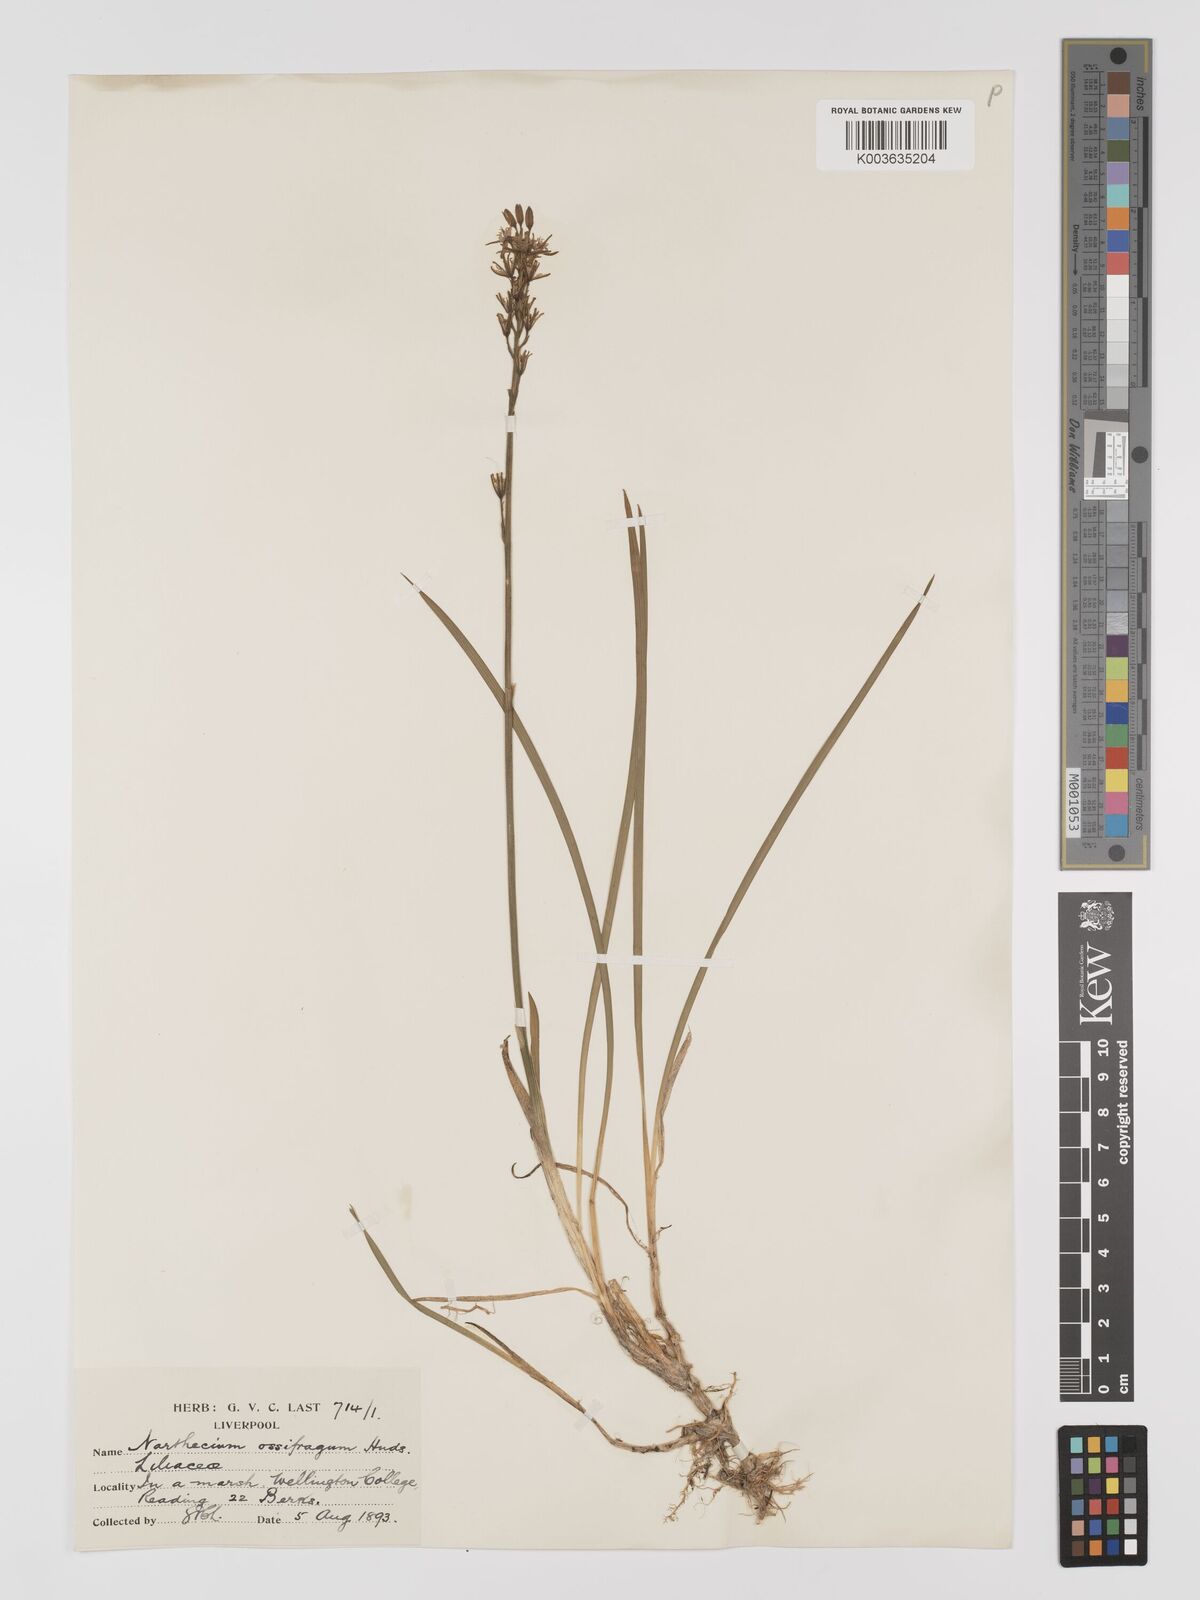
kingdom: Plantae
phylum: Tracheophyta
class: Liliopsida
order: Dioscoreales
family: Nartheciaceae
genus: Narthecium
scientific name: Narthecium
